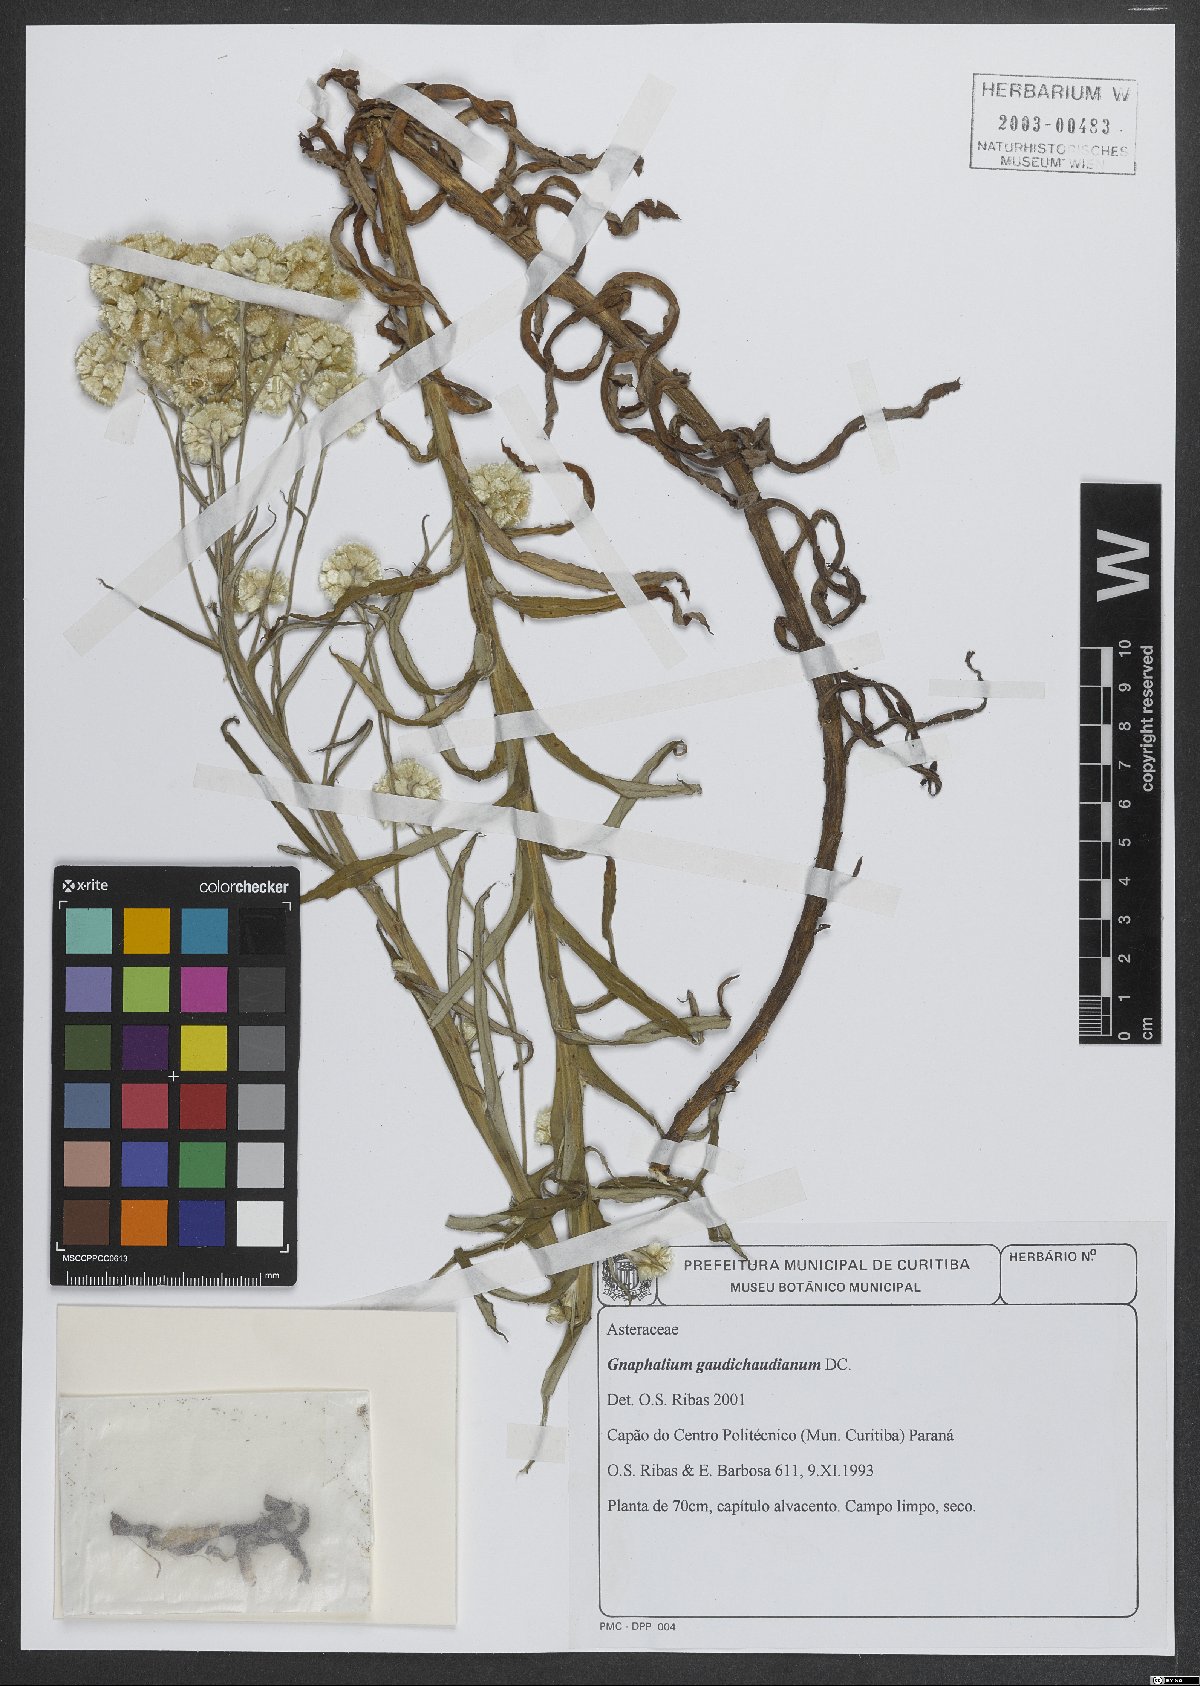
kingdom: Plantae
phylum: Tracheophyta
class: Magnoliopsida
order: Asterales
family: Asteraceae
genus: Grazielia
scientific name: Grazielia gaudichaudeana
